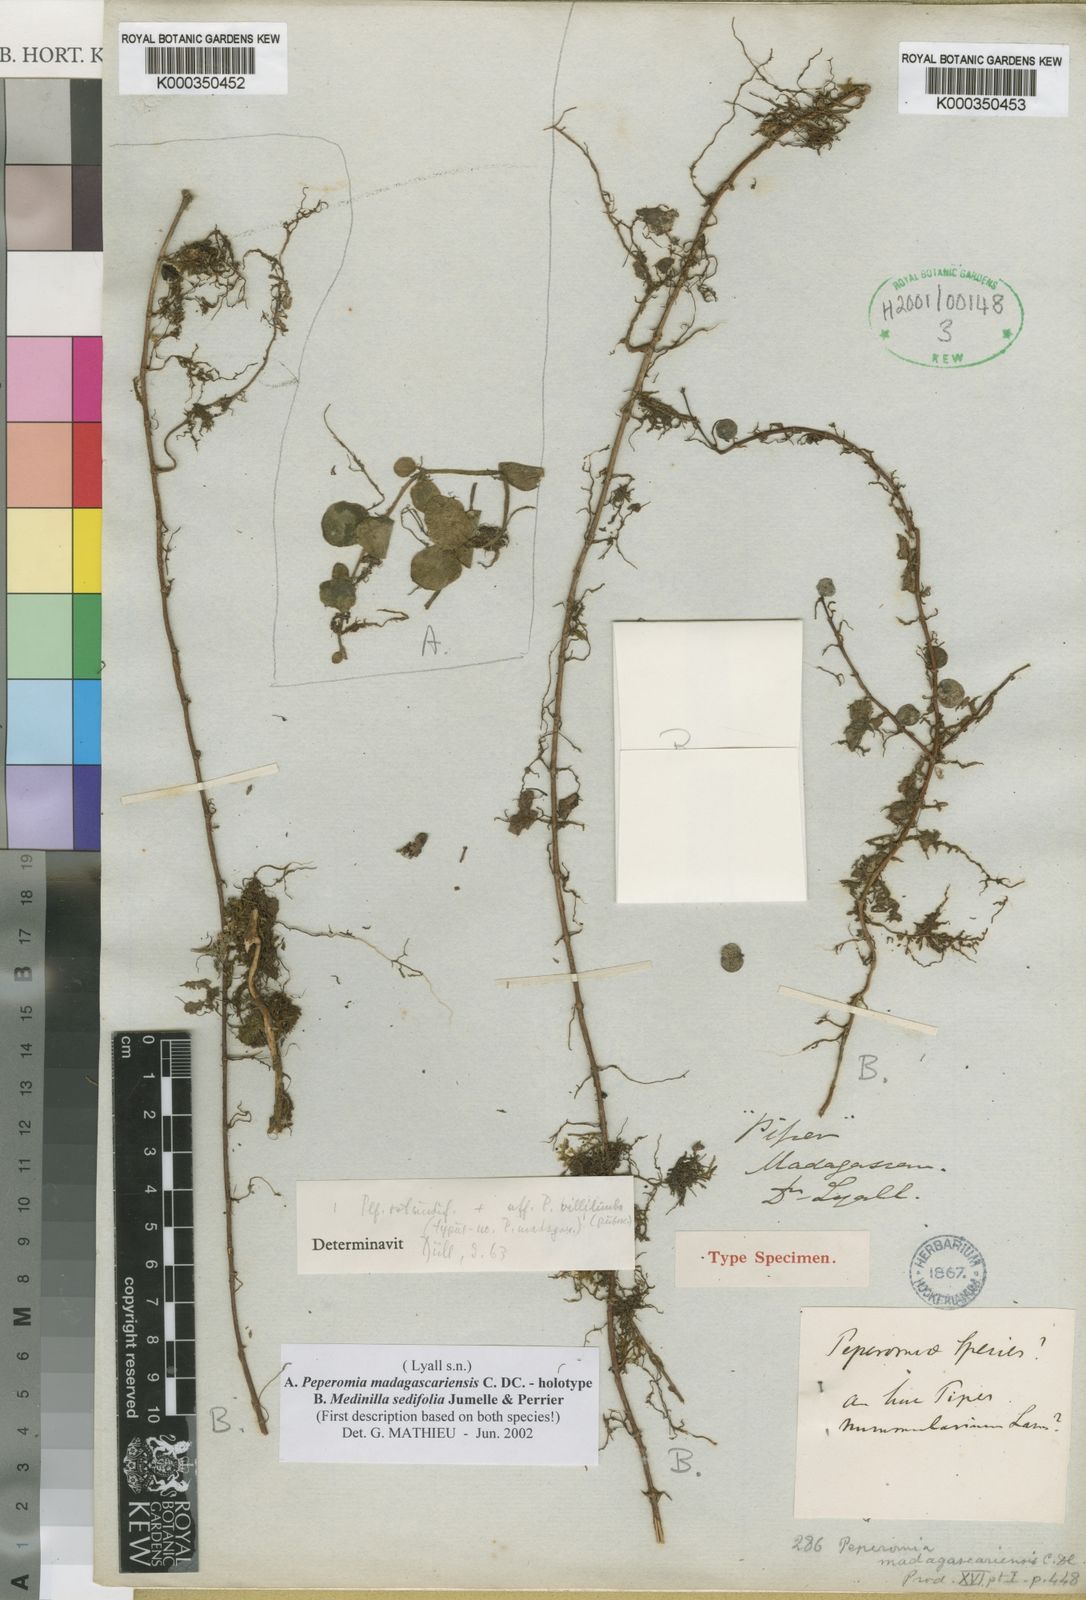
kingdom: Plantae
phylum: Tracheophyta
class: Magnoliopsida
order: Myrtales
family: Melastomataceae
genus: Medinilla
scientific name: Medinilla sedifolia
